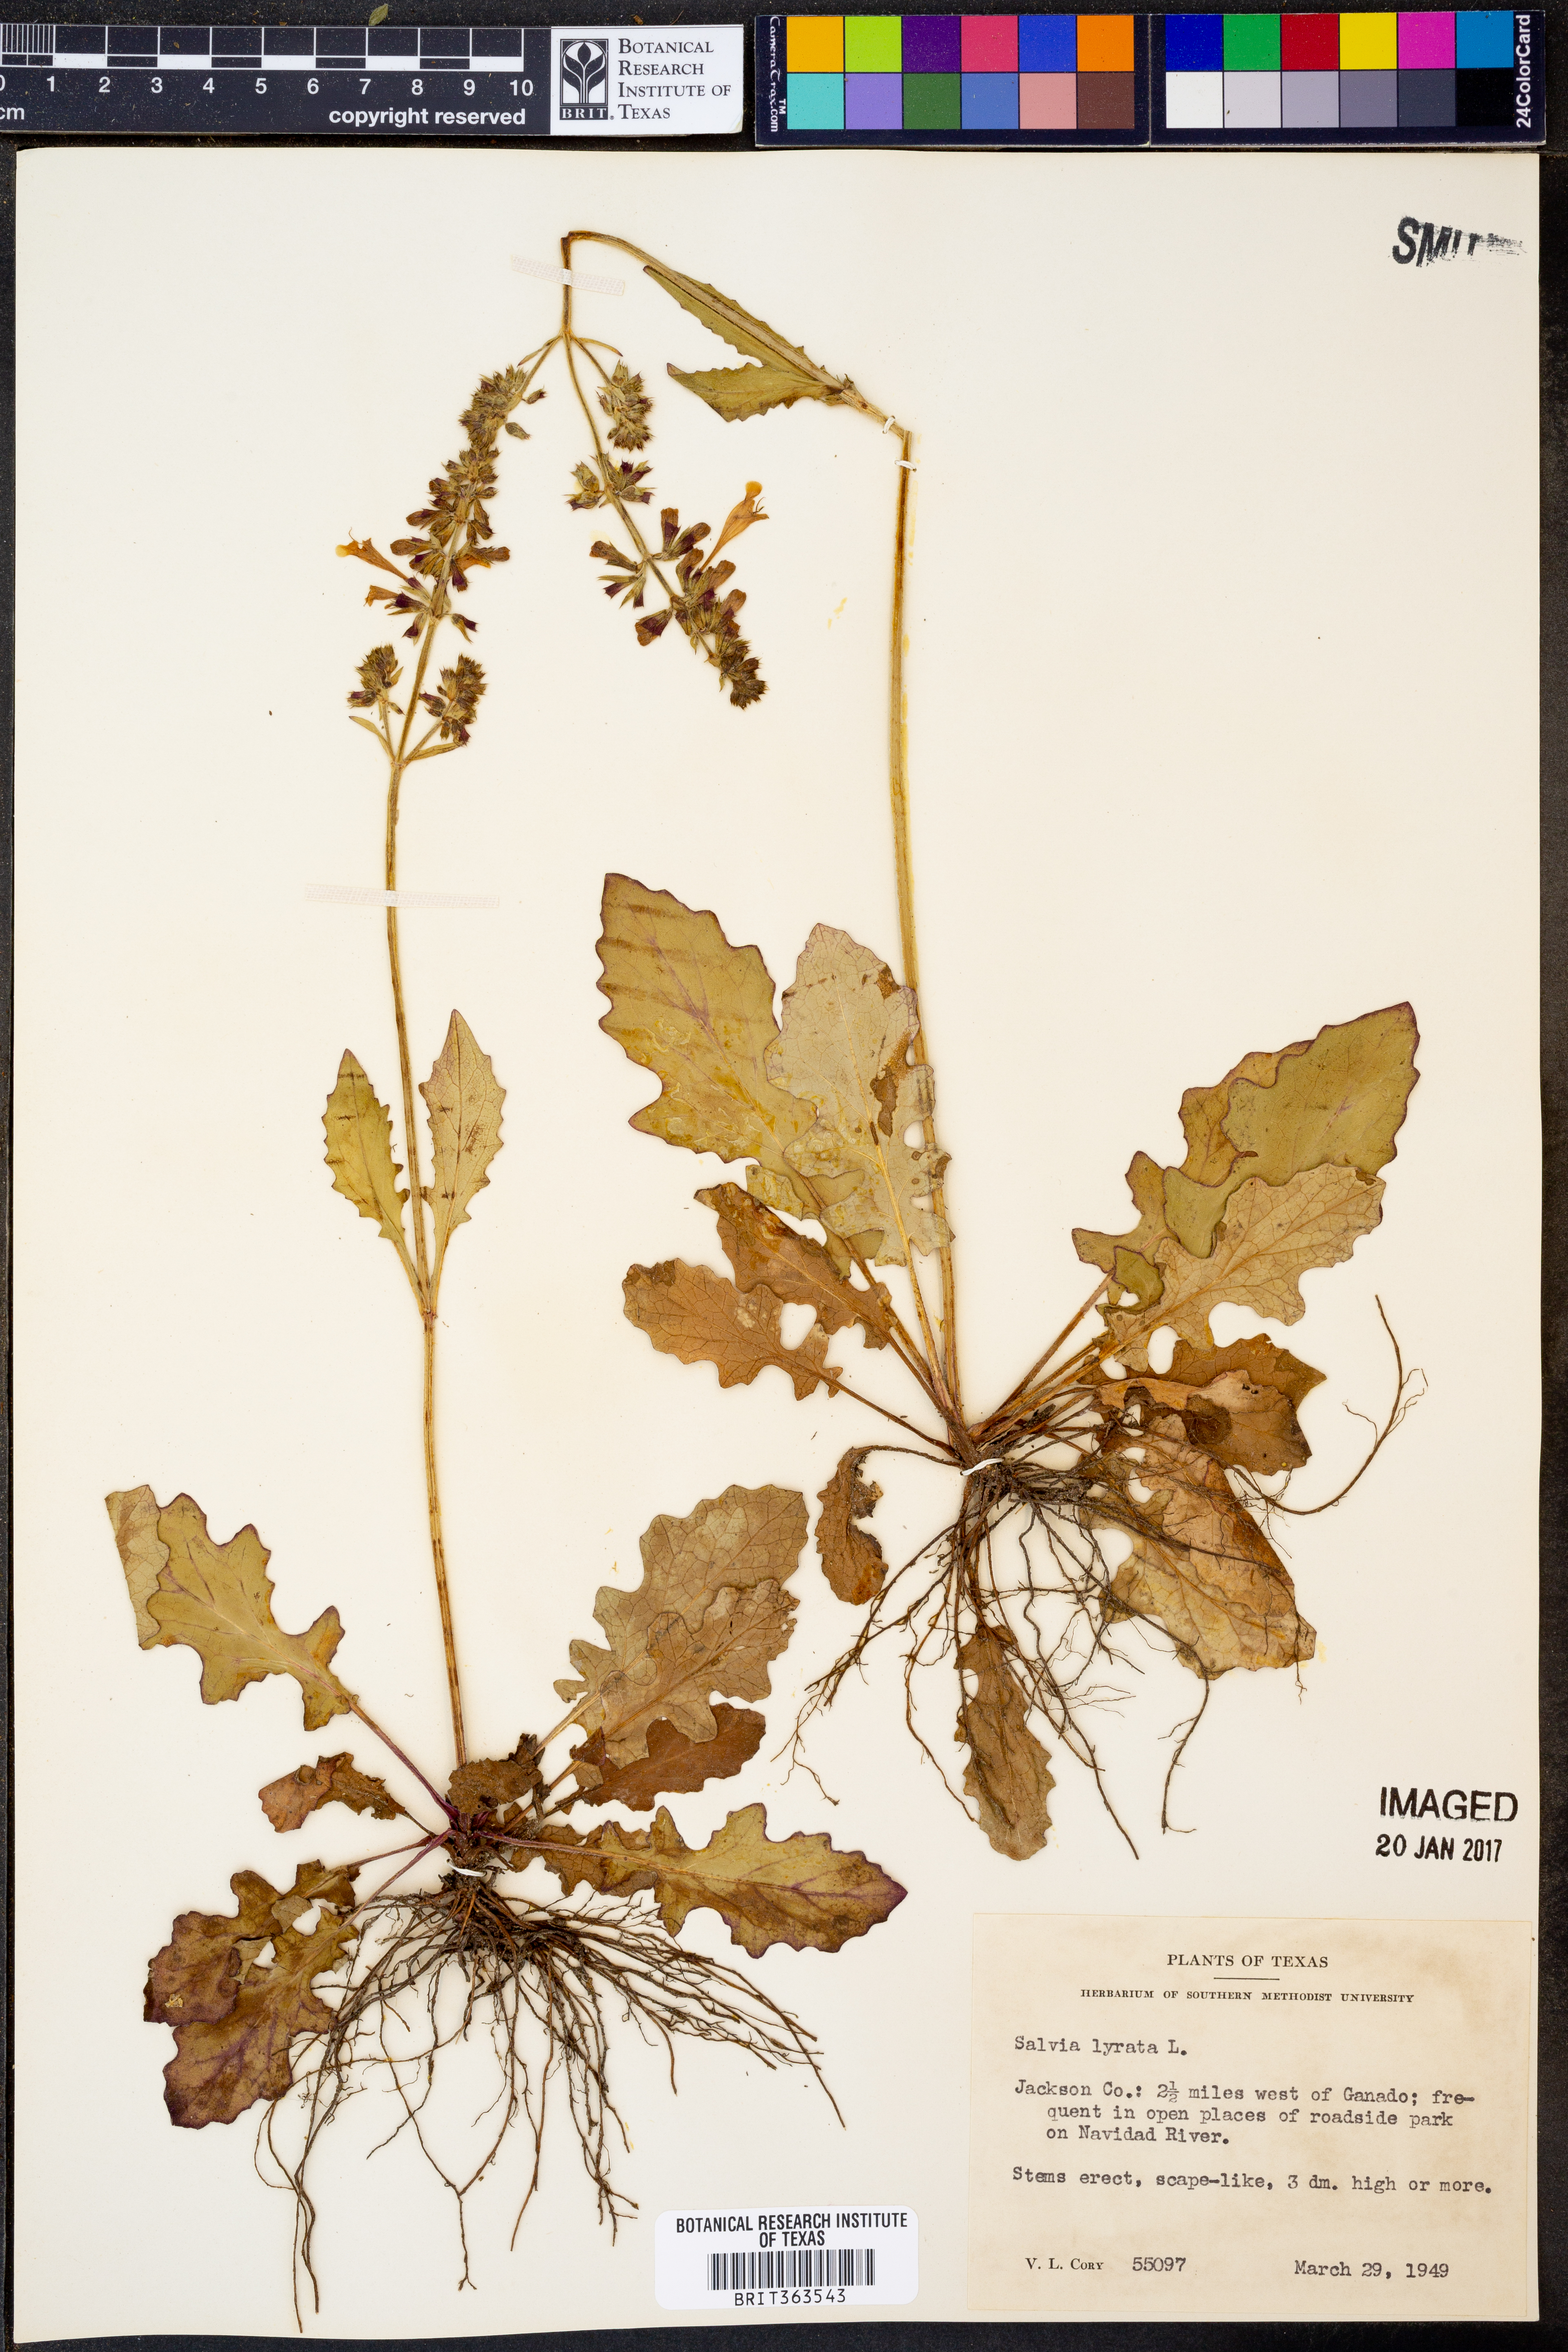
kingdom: Plantae
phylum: Tracheophyta
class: Magnoliopsida
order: Lamiales
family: Lamiaceae
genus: Salvia
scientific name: Salvia lyrata
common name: Cancerweed
